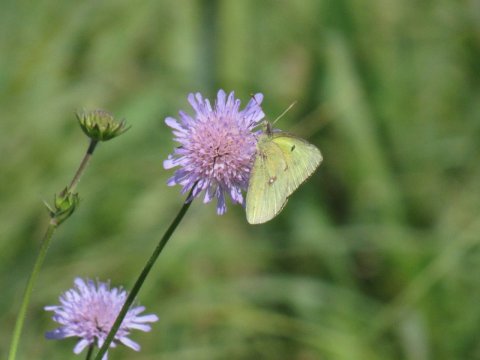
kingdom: Animalia
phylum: Arthropoda
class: Insecta
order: Lepidoptera
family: Pieridae
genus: Colias
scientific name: Colias philodice
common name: Clouded Sulphur
